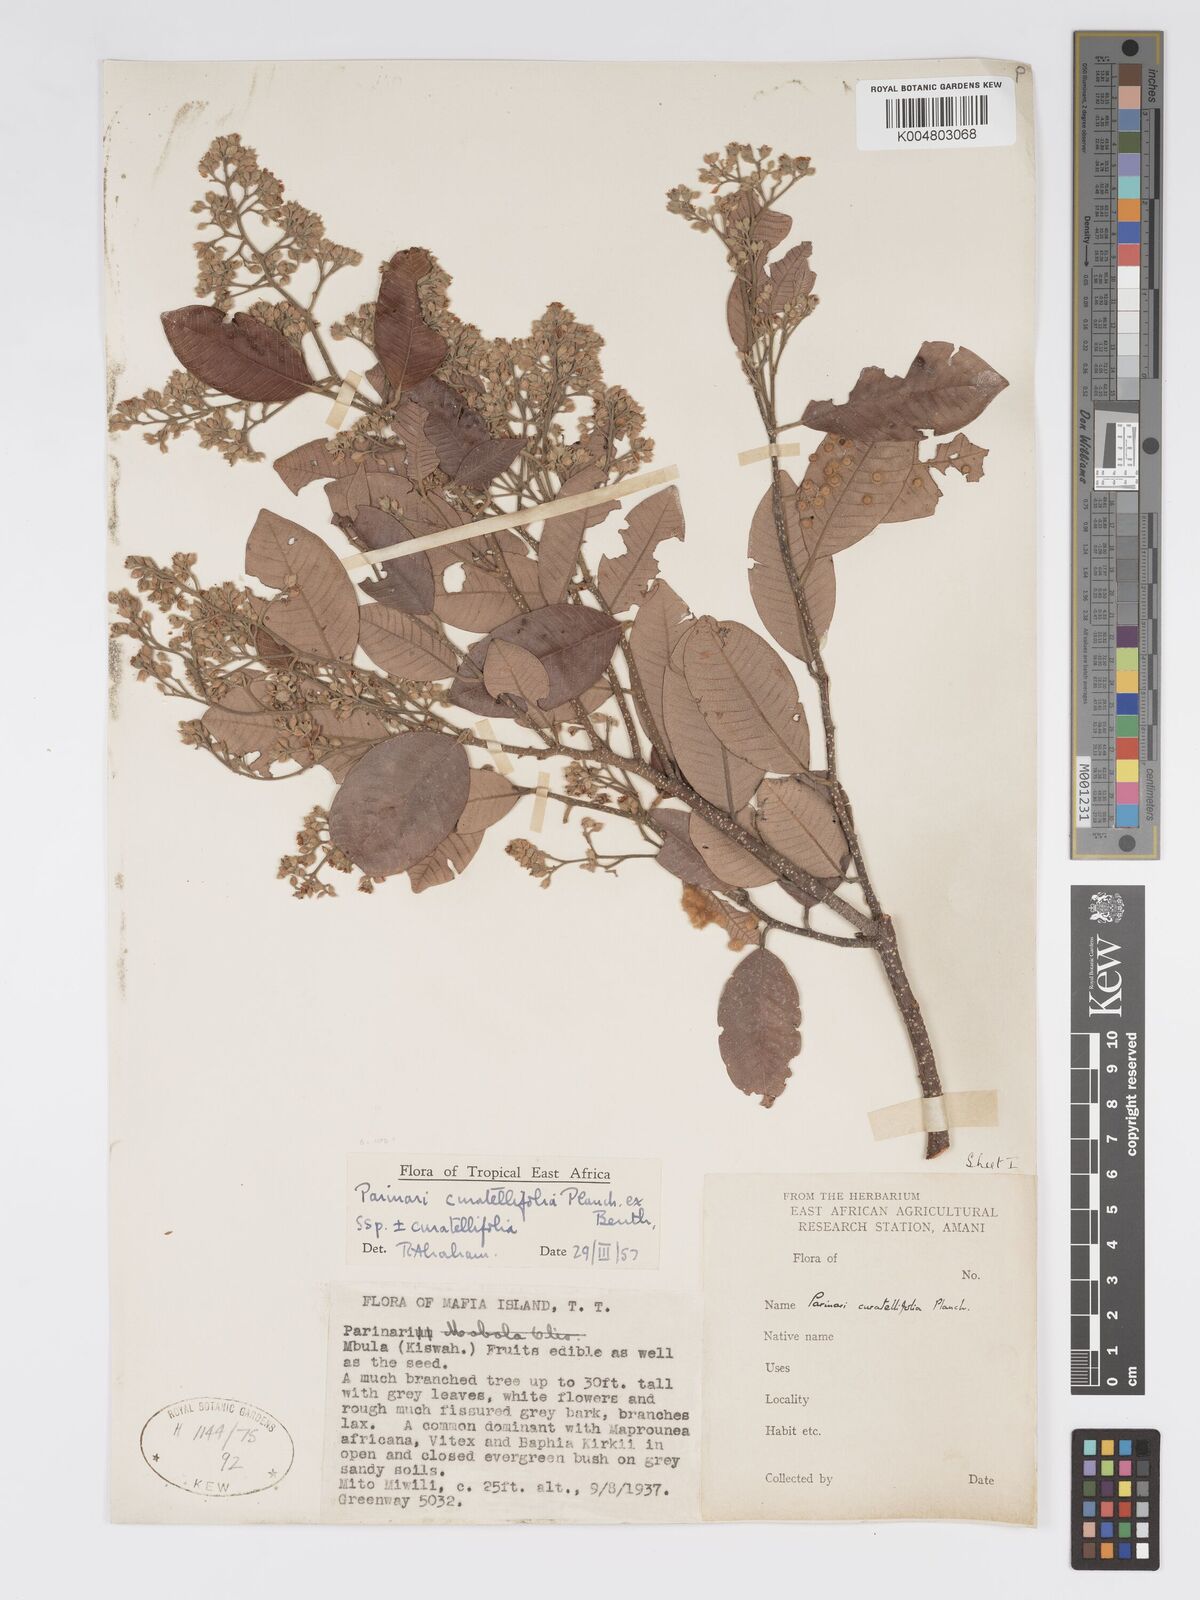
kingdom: Plantae
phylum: Tracheophyta
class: Magnoliopsida
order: Malpighiales
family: Chrysobalanaceae
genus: Parinari
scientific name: Parinari
